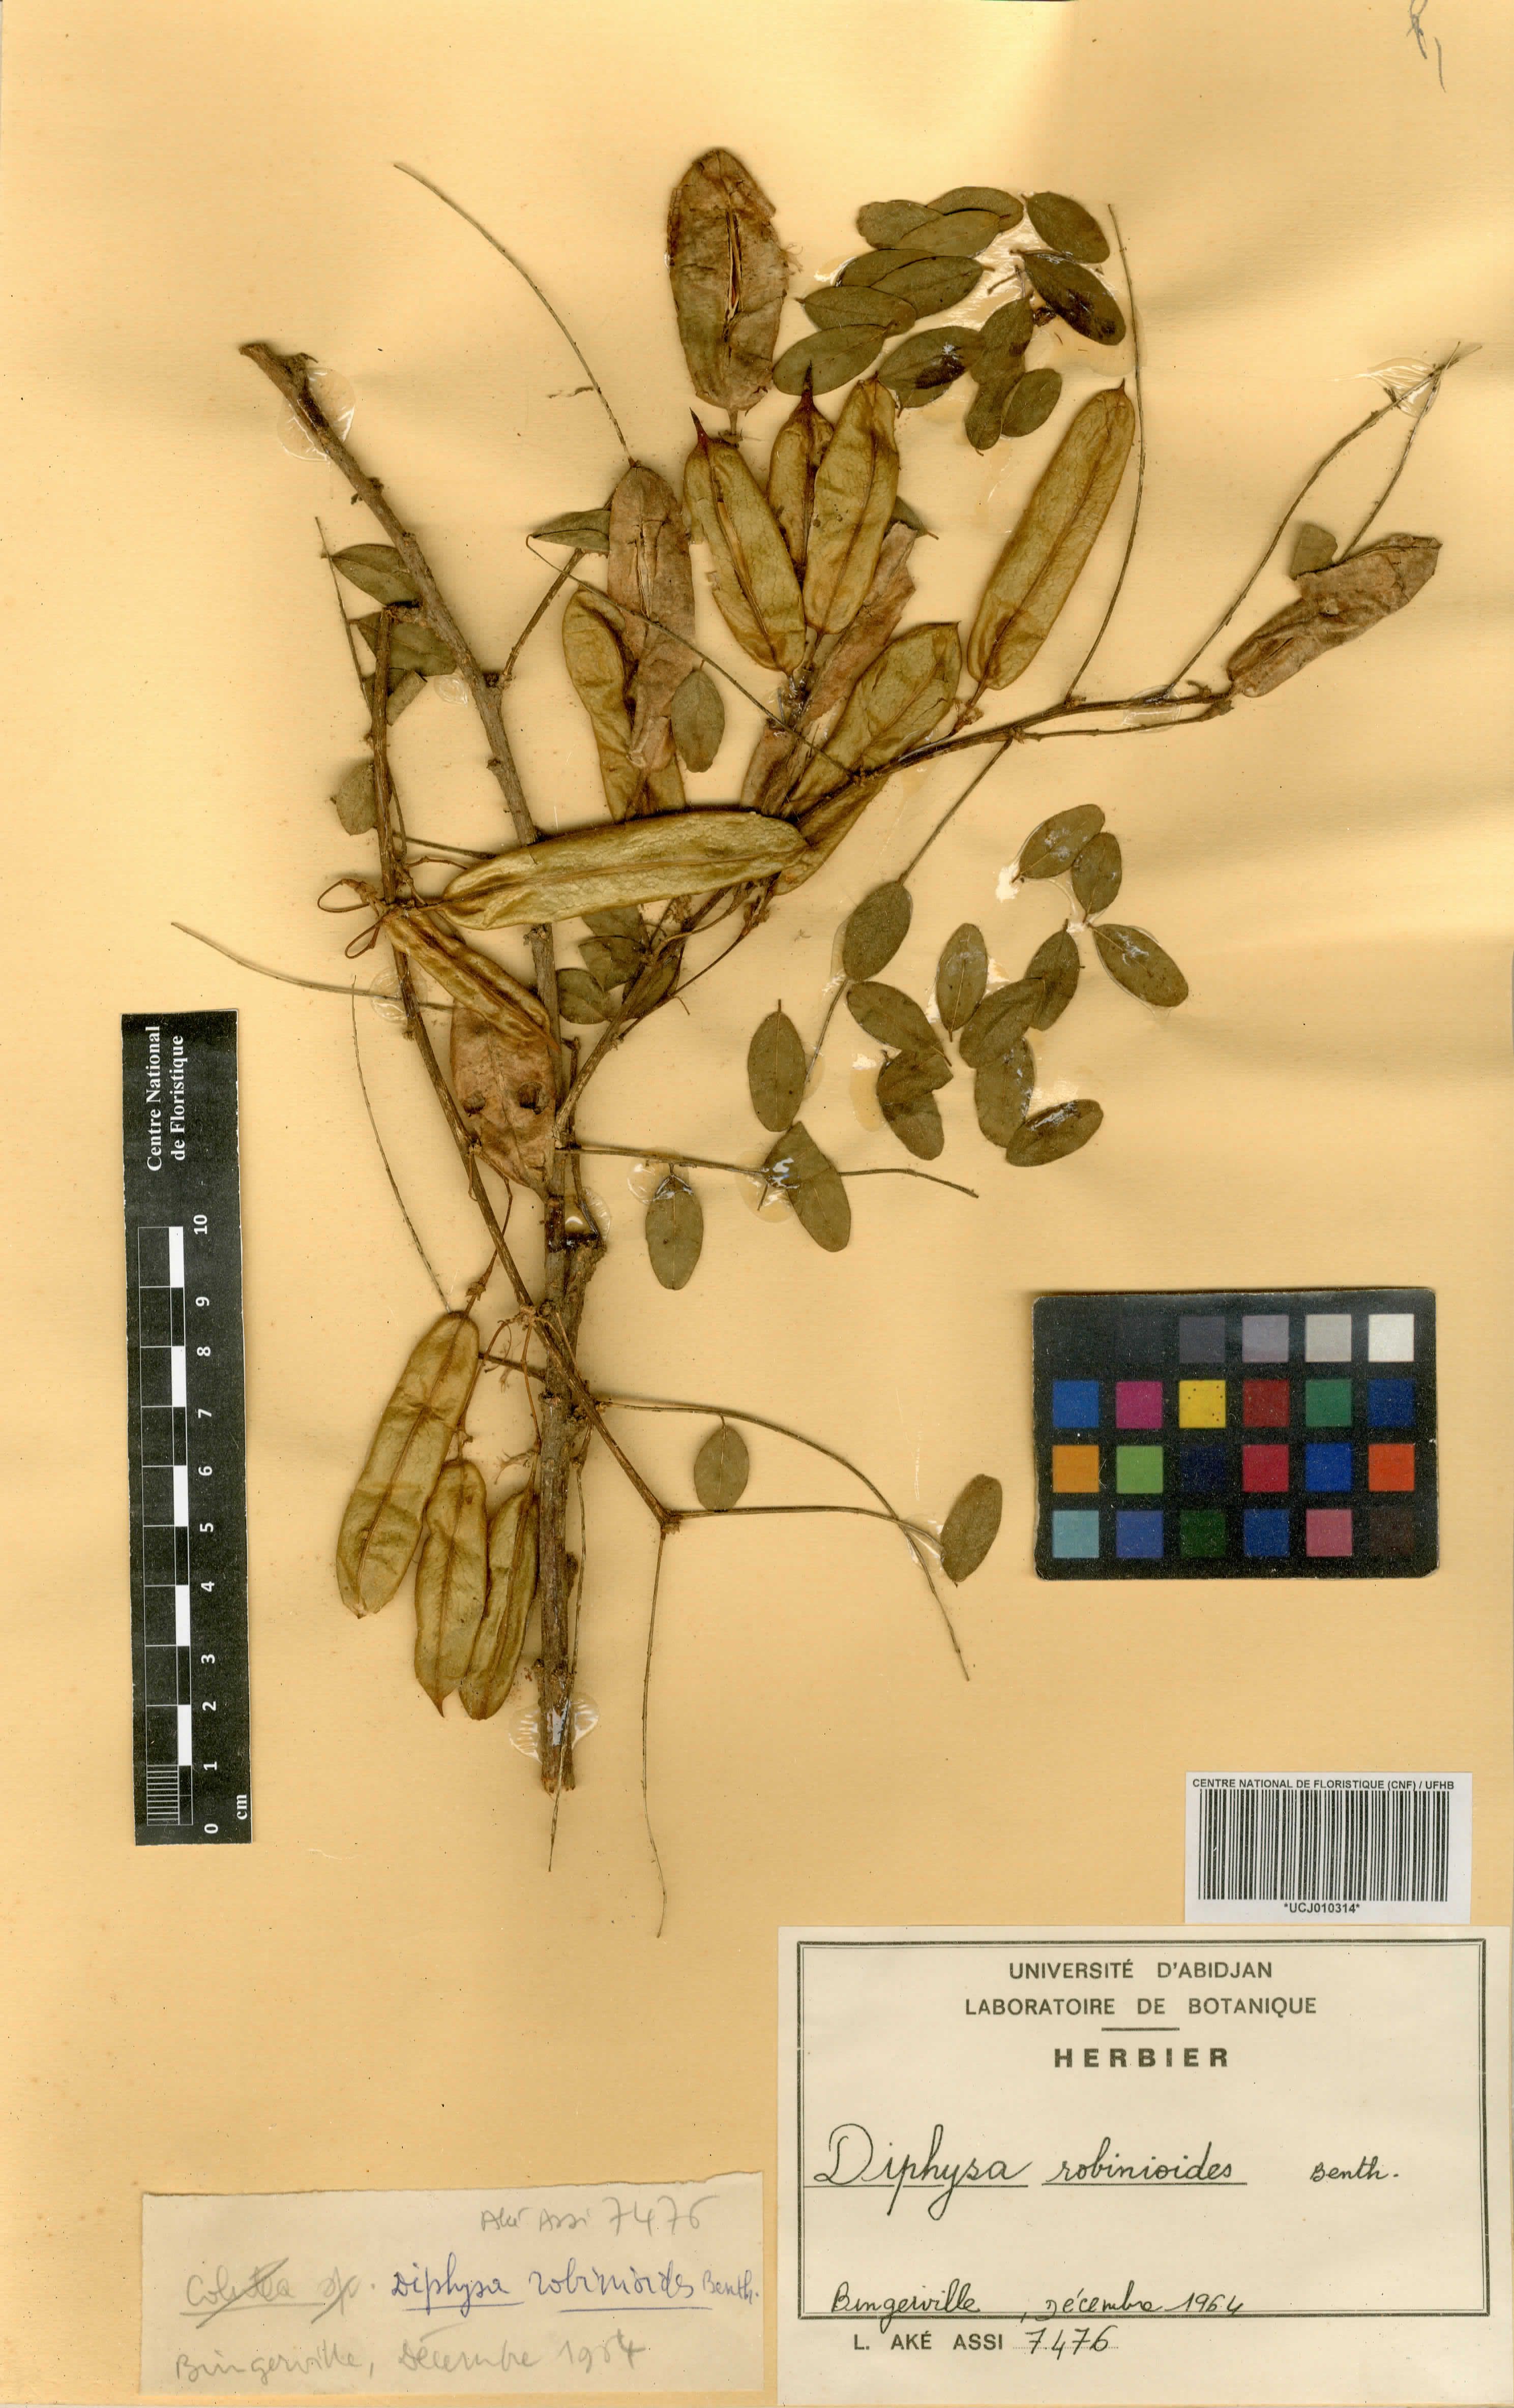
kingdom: Plantae
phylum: Tracheophyta
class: Magnoliopsida
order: Fabales
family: Fabaceae
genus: Diphysa
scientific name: Diphysa americana
